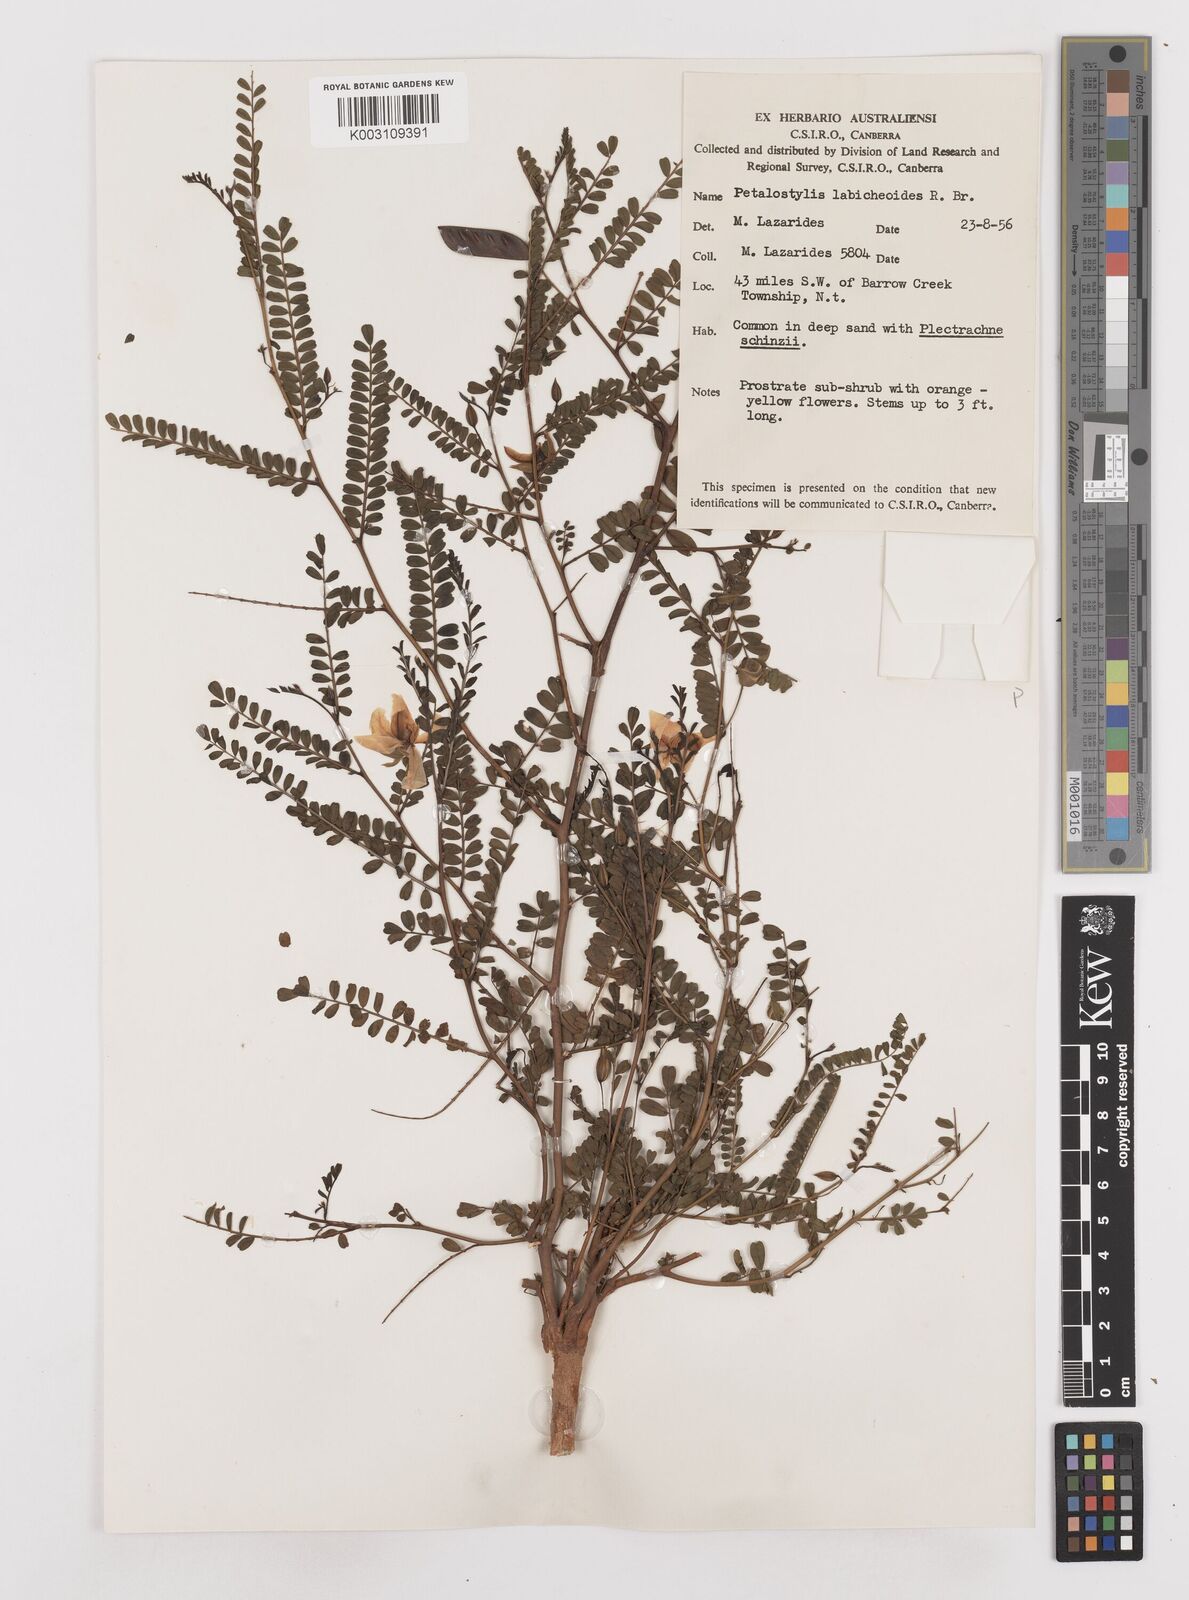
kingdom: Plantae
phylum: Tracheophyta
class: Magnoliopsida
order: Fabales
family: Fabaceae
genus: Petalostylis
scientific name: Petalostylis labicheoides
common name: Butterfly bush
